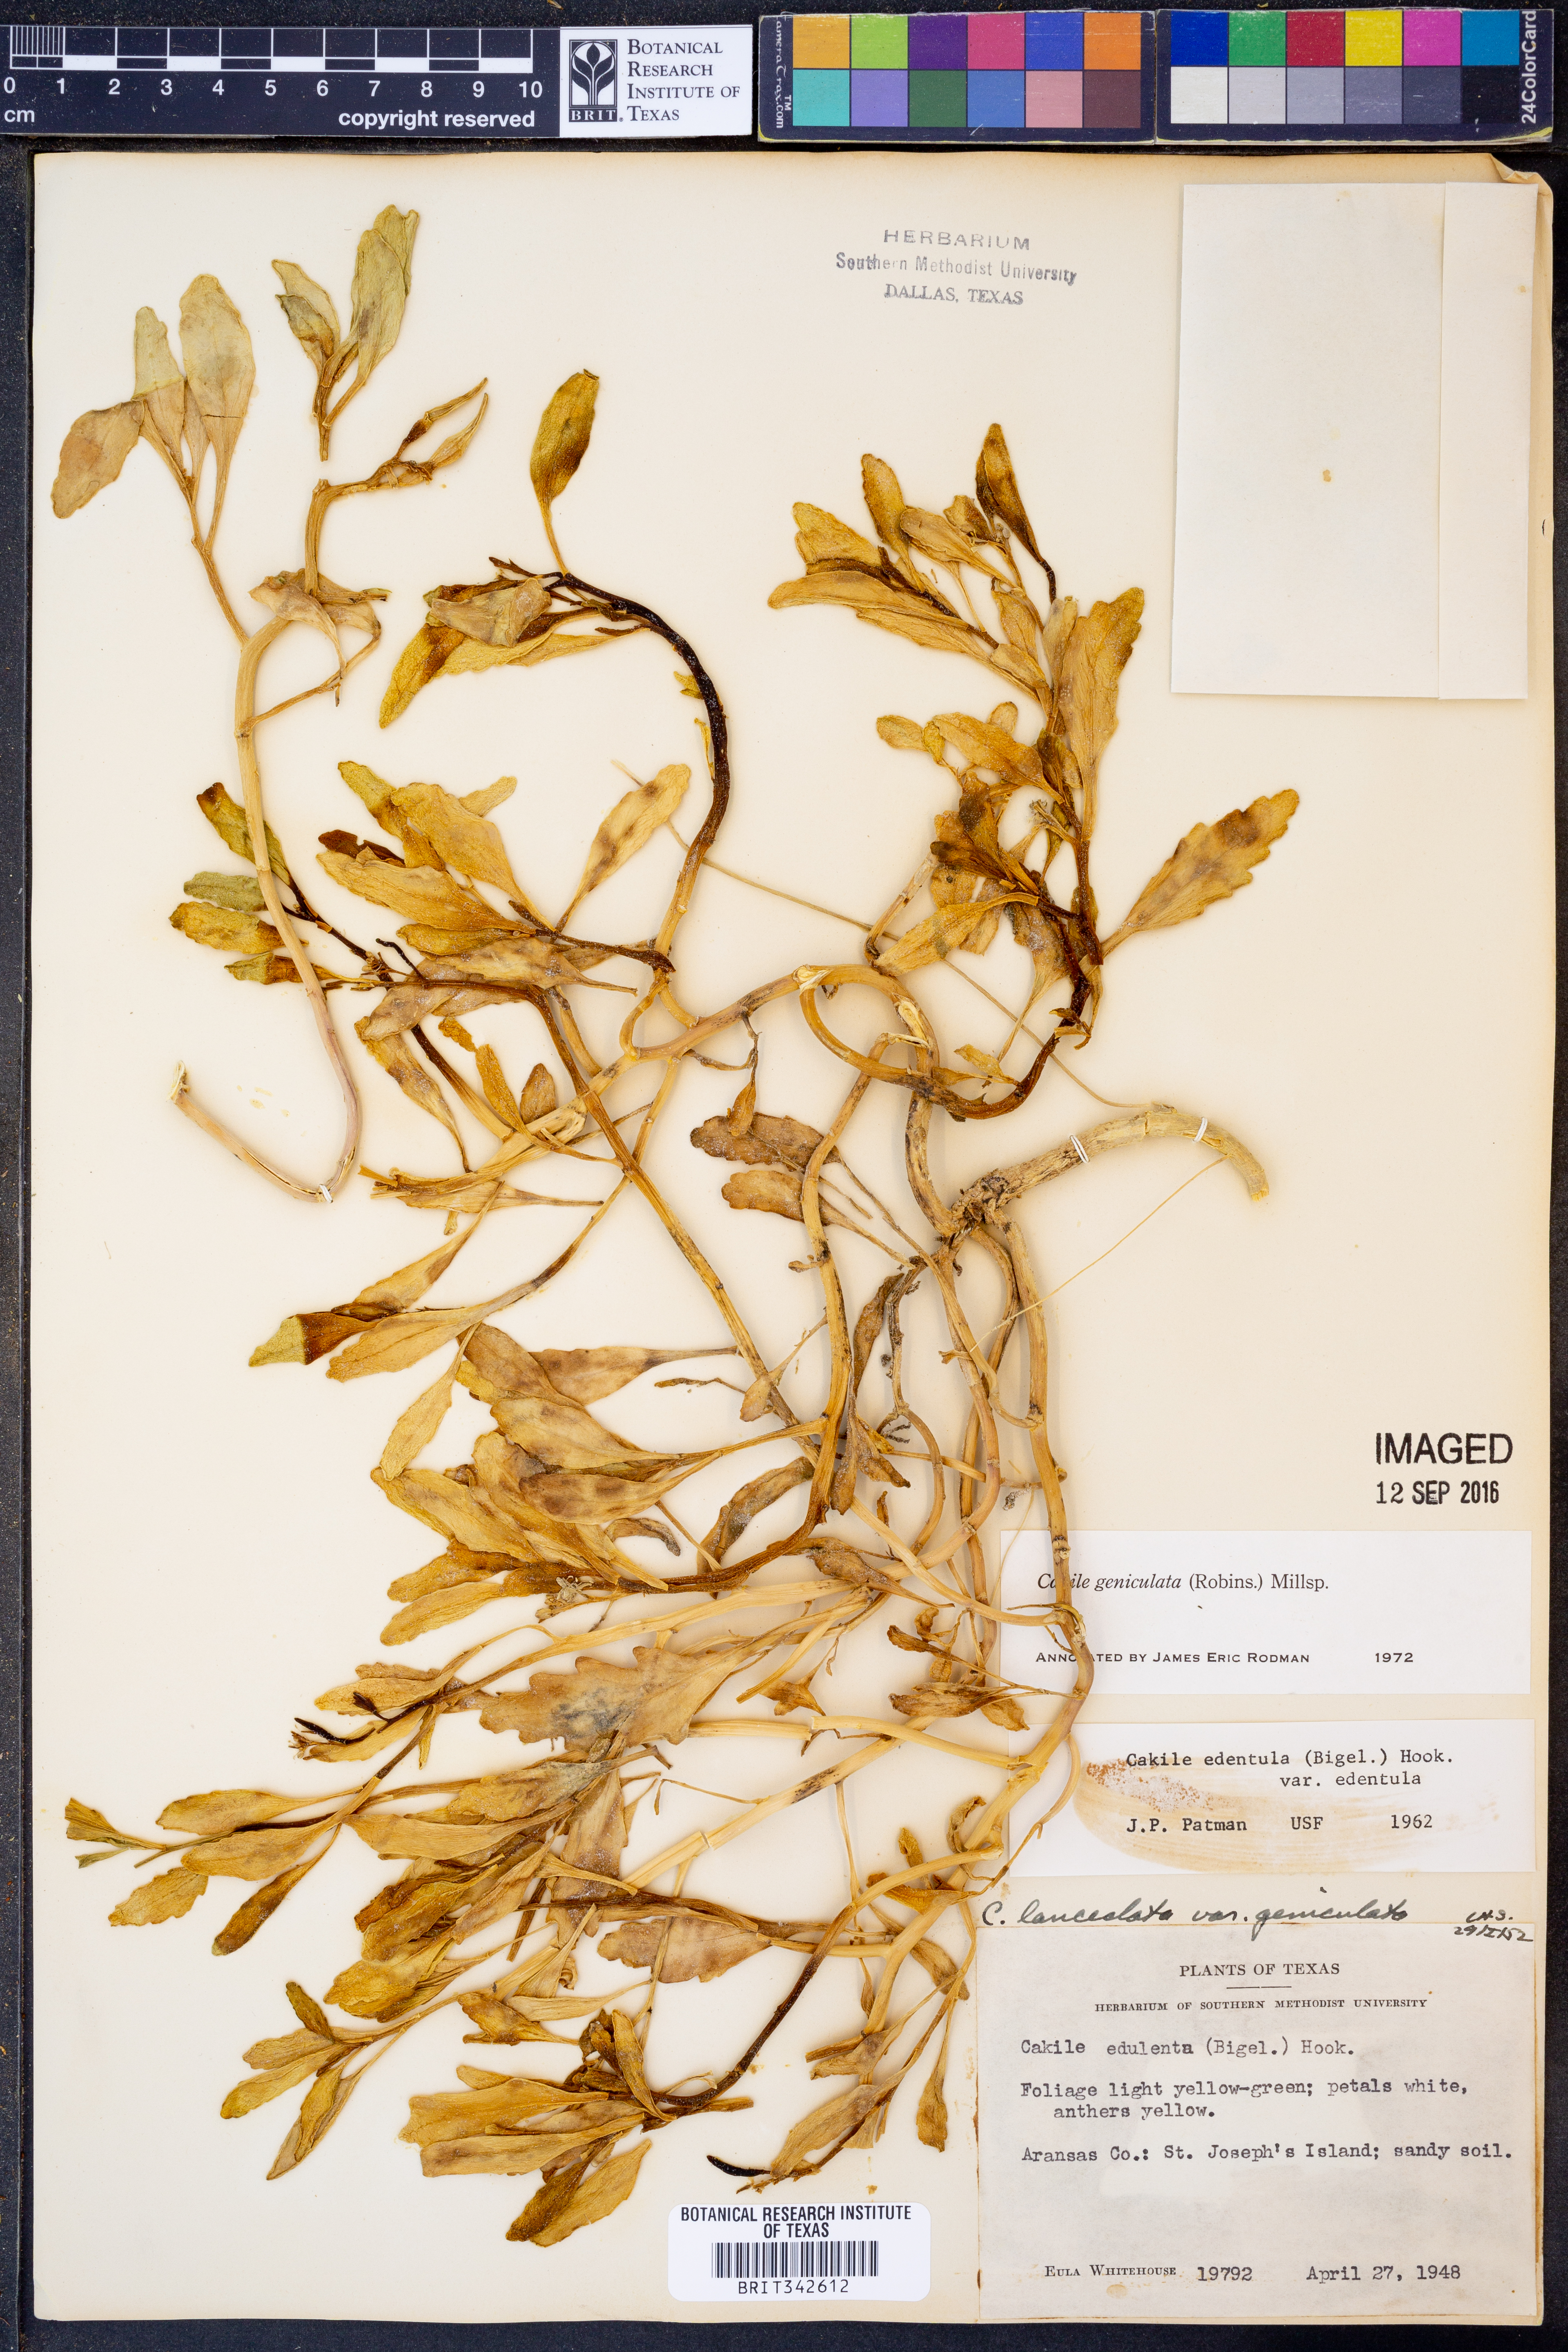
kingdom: Plantae
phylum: Tracheophyta
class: Magnoliopsida
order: Brassicales
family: Brassicaceae
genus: Cakile
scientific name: Cakile geniculata
